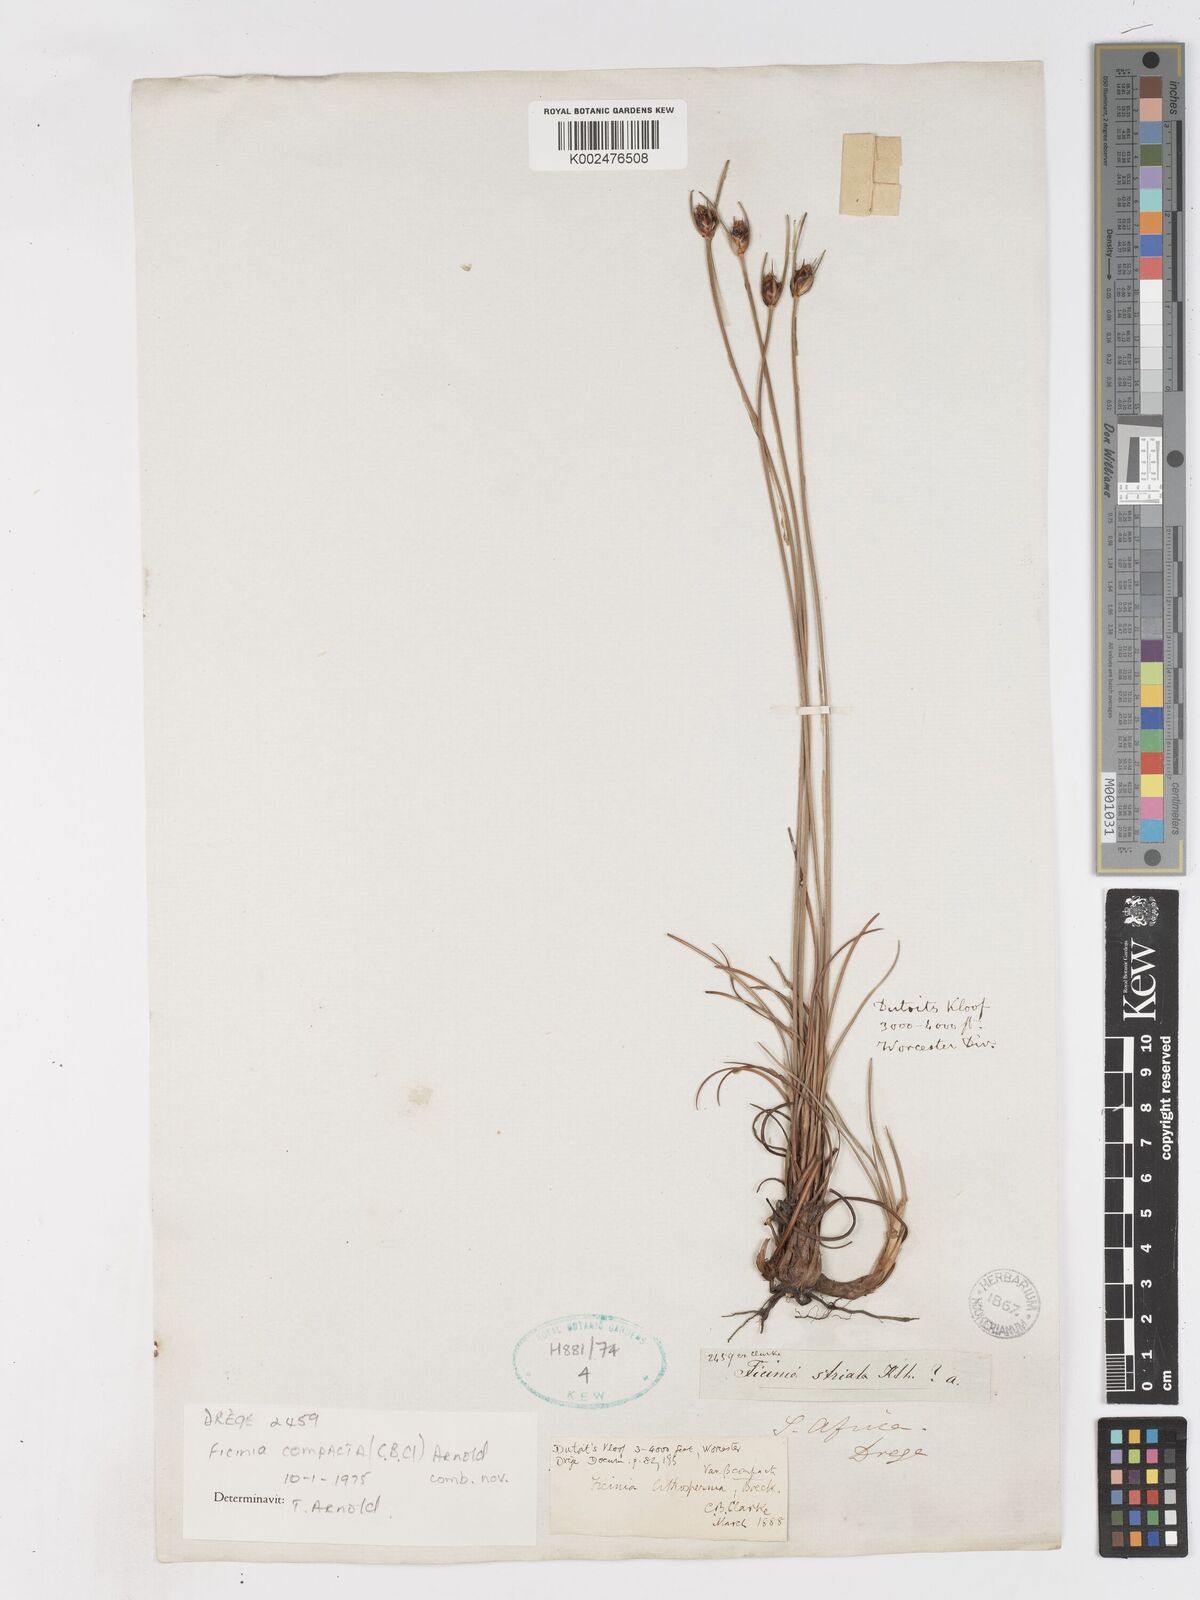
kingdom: Plantae
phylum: Tracheophyta
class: Liliopsida
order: Poales
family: Cyperaceae
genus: Ficinia
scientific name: Ficinia
